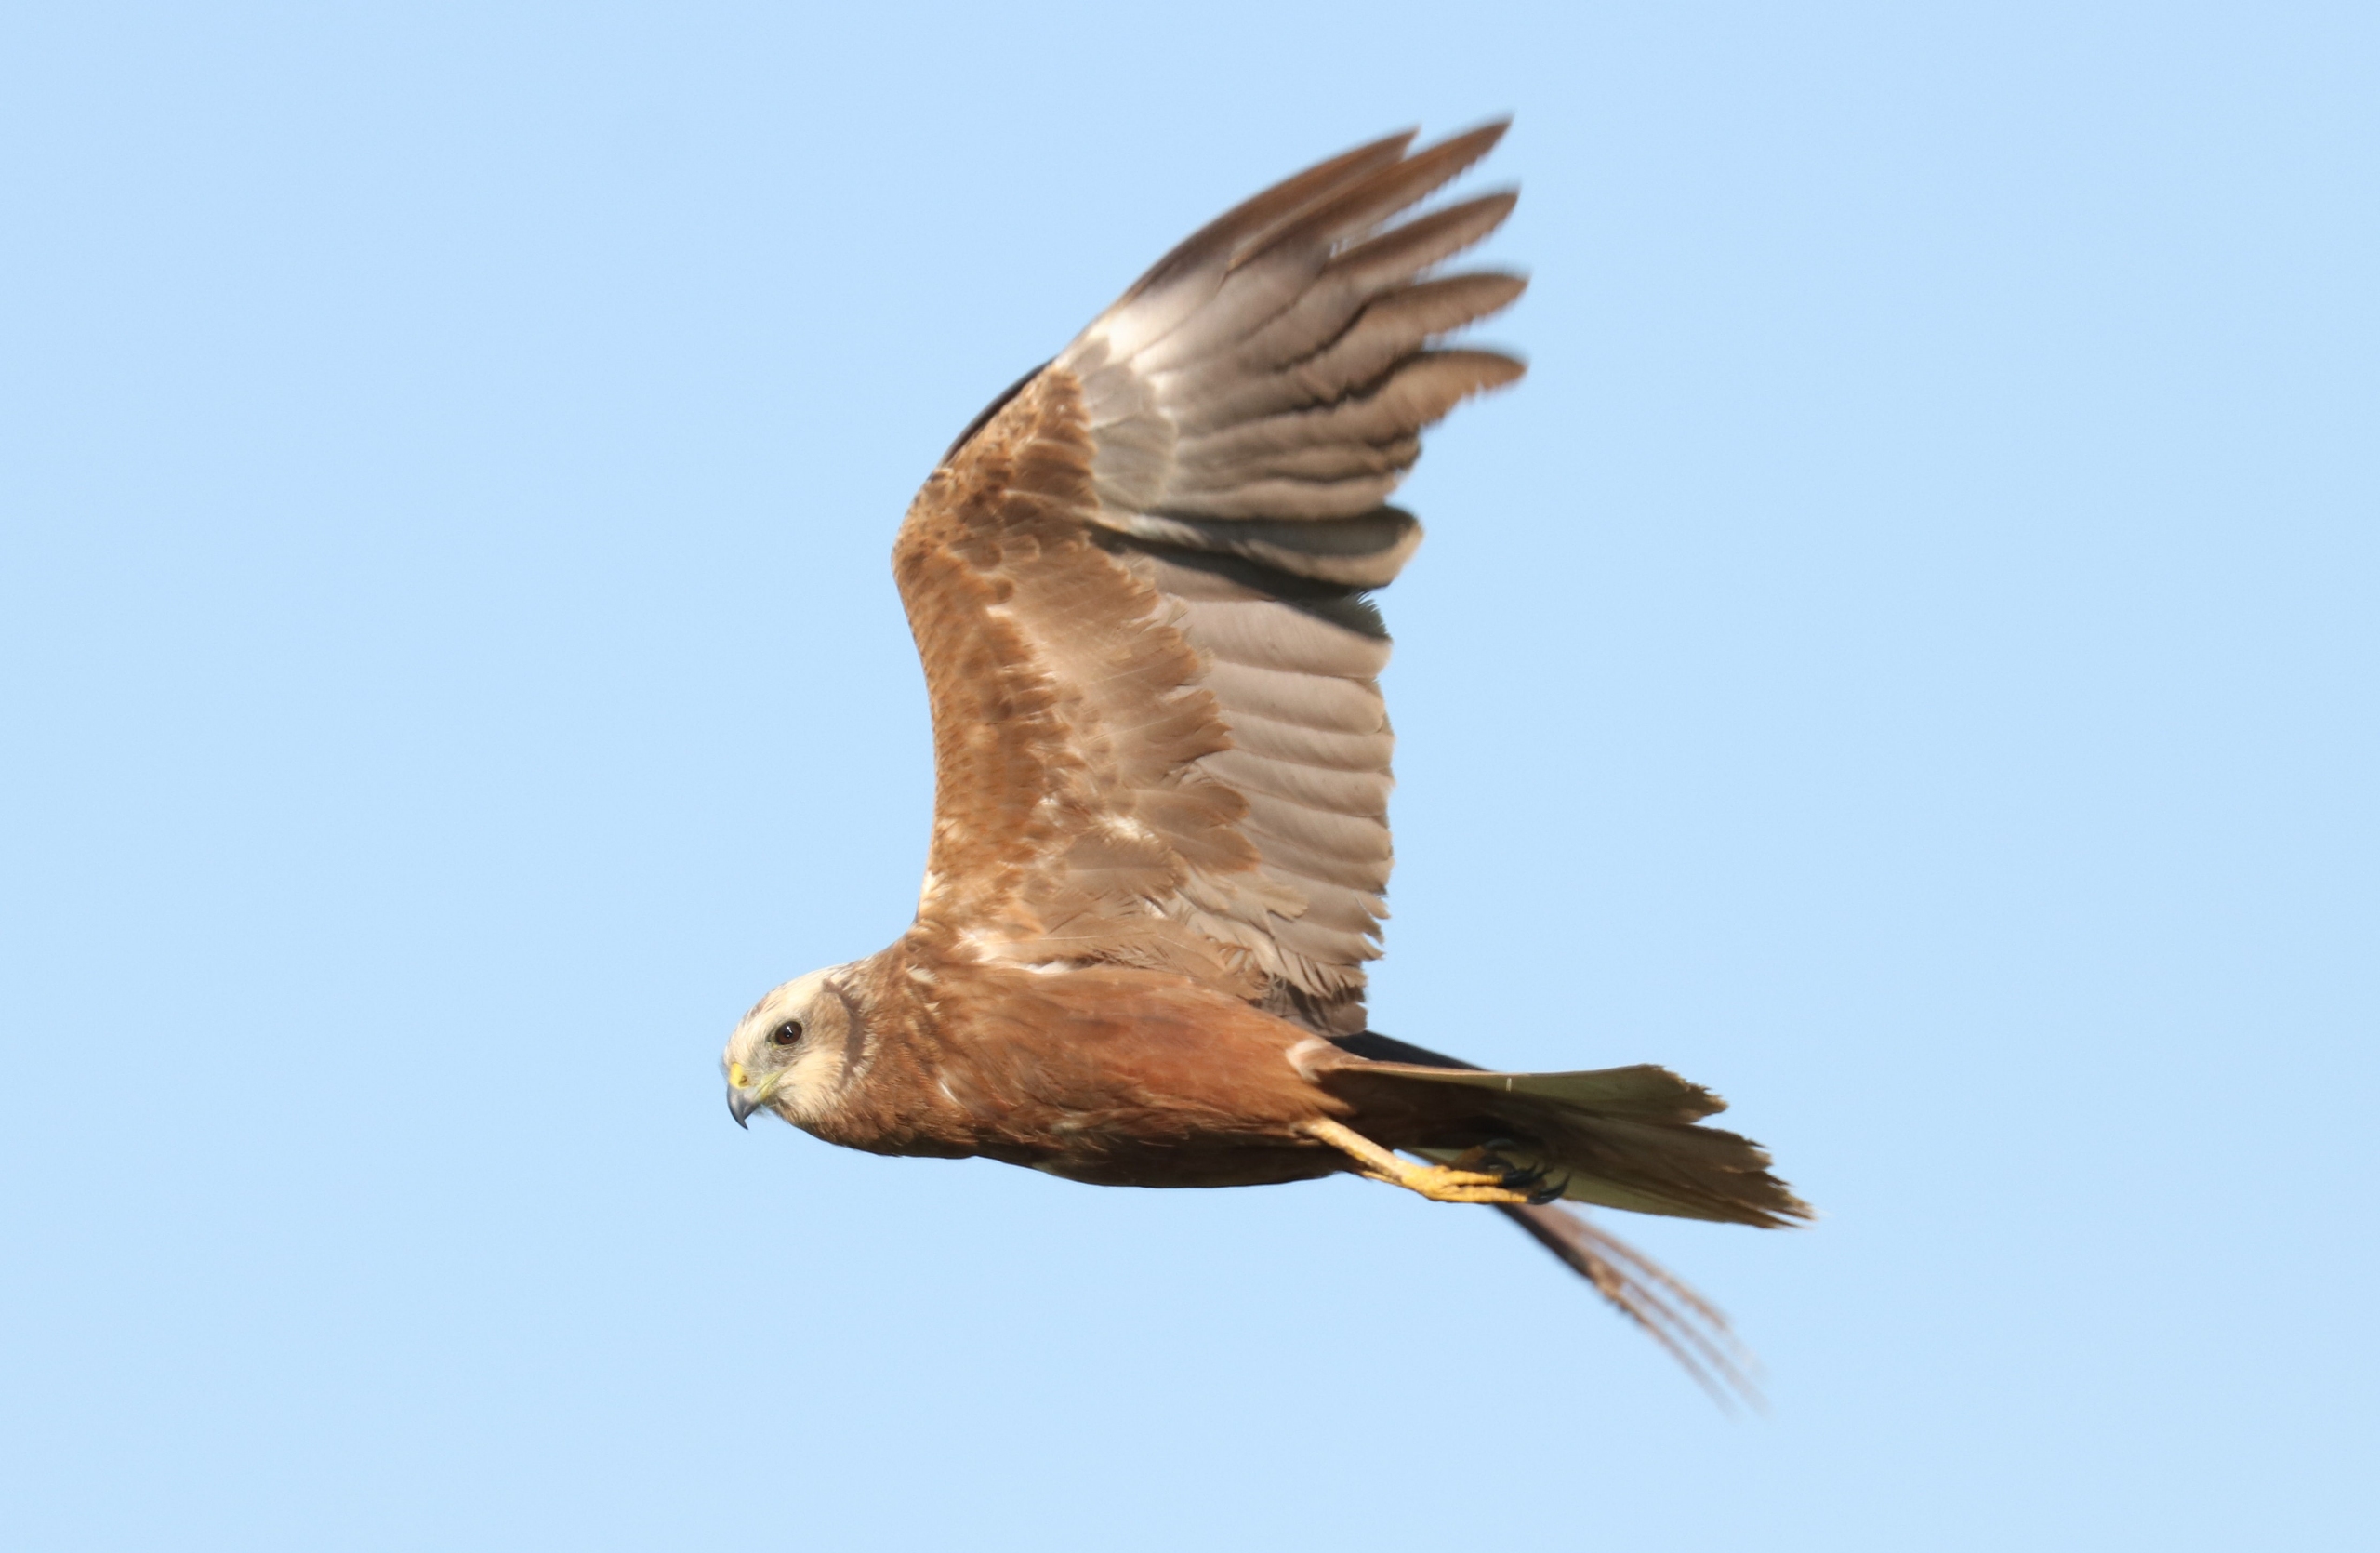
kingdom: Animalia
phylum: Chordata
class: Aves
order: Accipitriformes
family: Accipitridae
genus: Circus
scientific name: Circus aeruginosus
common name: Rørhøg
